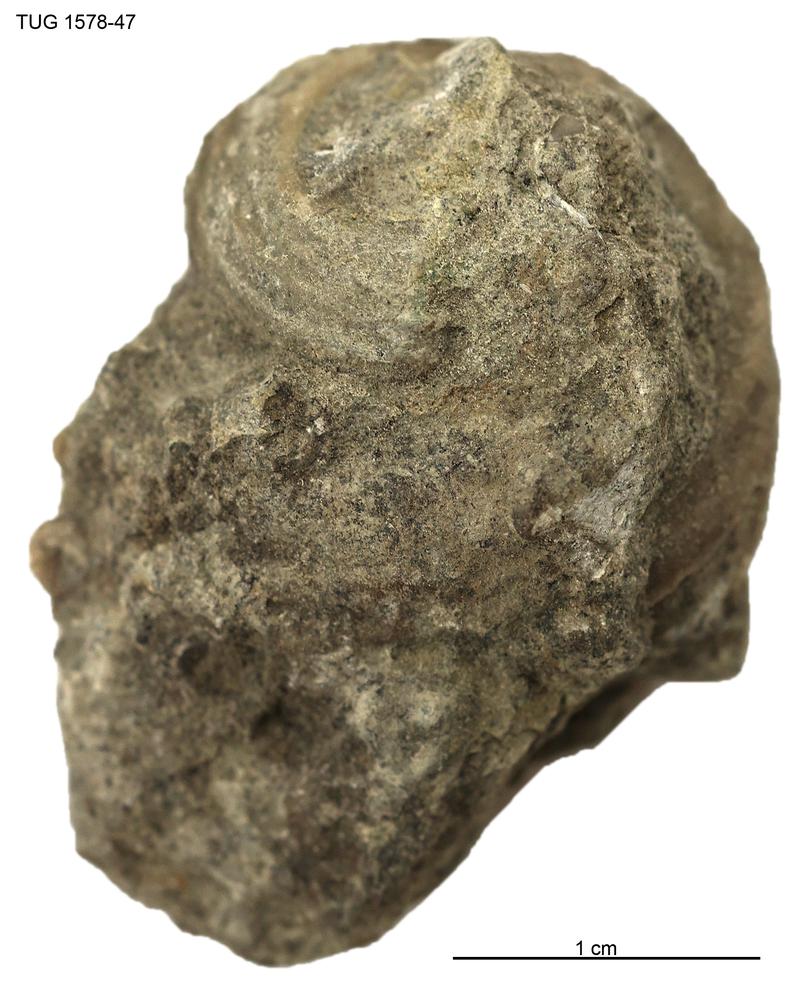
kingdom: Animalia
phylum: Mollusca
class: Gastropoda
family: Euomphalidae
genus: Poleumita
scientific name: Poleumita Euomphalus discors
